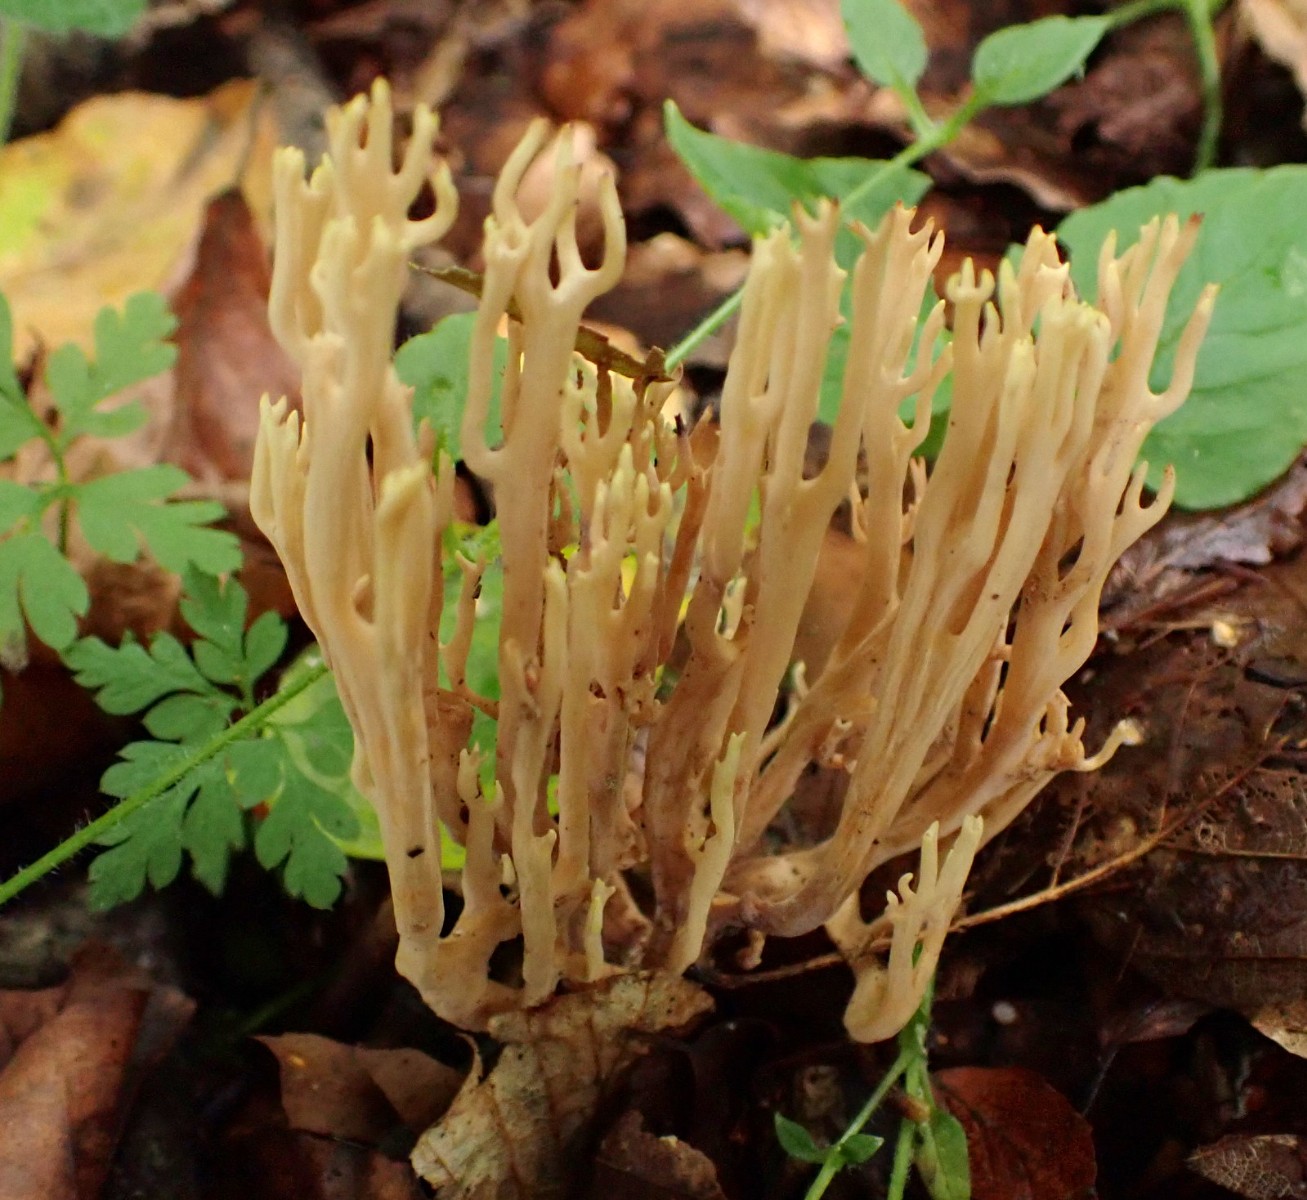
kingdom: Fungi
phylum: Basidiomycota
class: Agaricomycetes
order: Gomphales
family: Gomphaceae
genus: Ramaria
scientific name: Ramaria stricta
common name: rank koralsvamp
